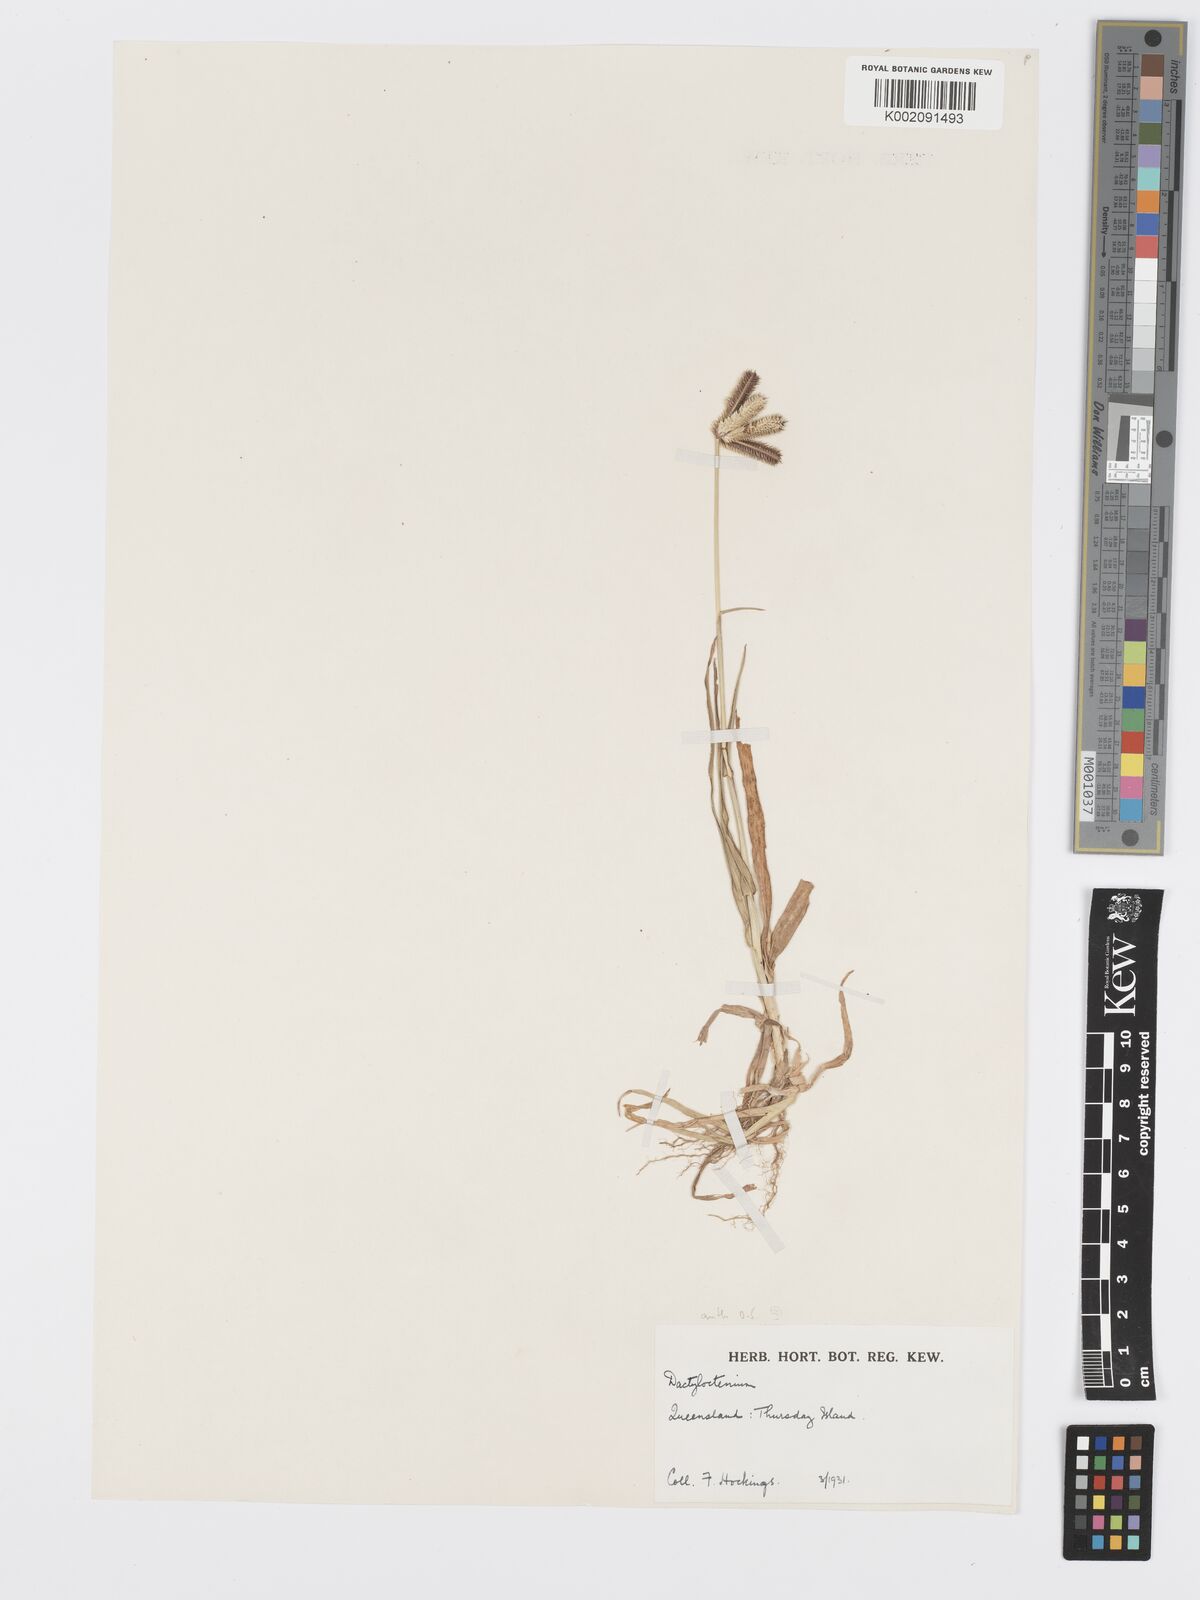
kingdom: Plantae
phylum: Tracheophyta
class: Liliopsida
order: Poales
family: Poaceae
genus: Dactyloctenium
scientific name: Dactyloctenium aegyptium
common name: Egyptian grass
